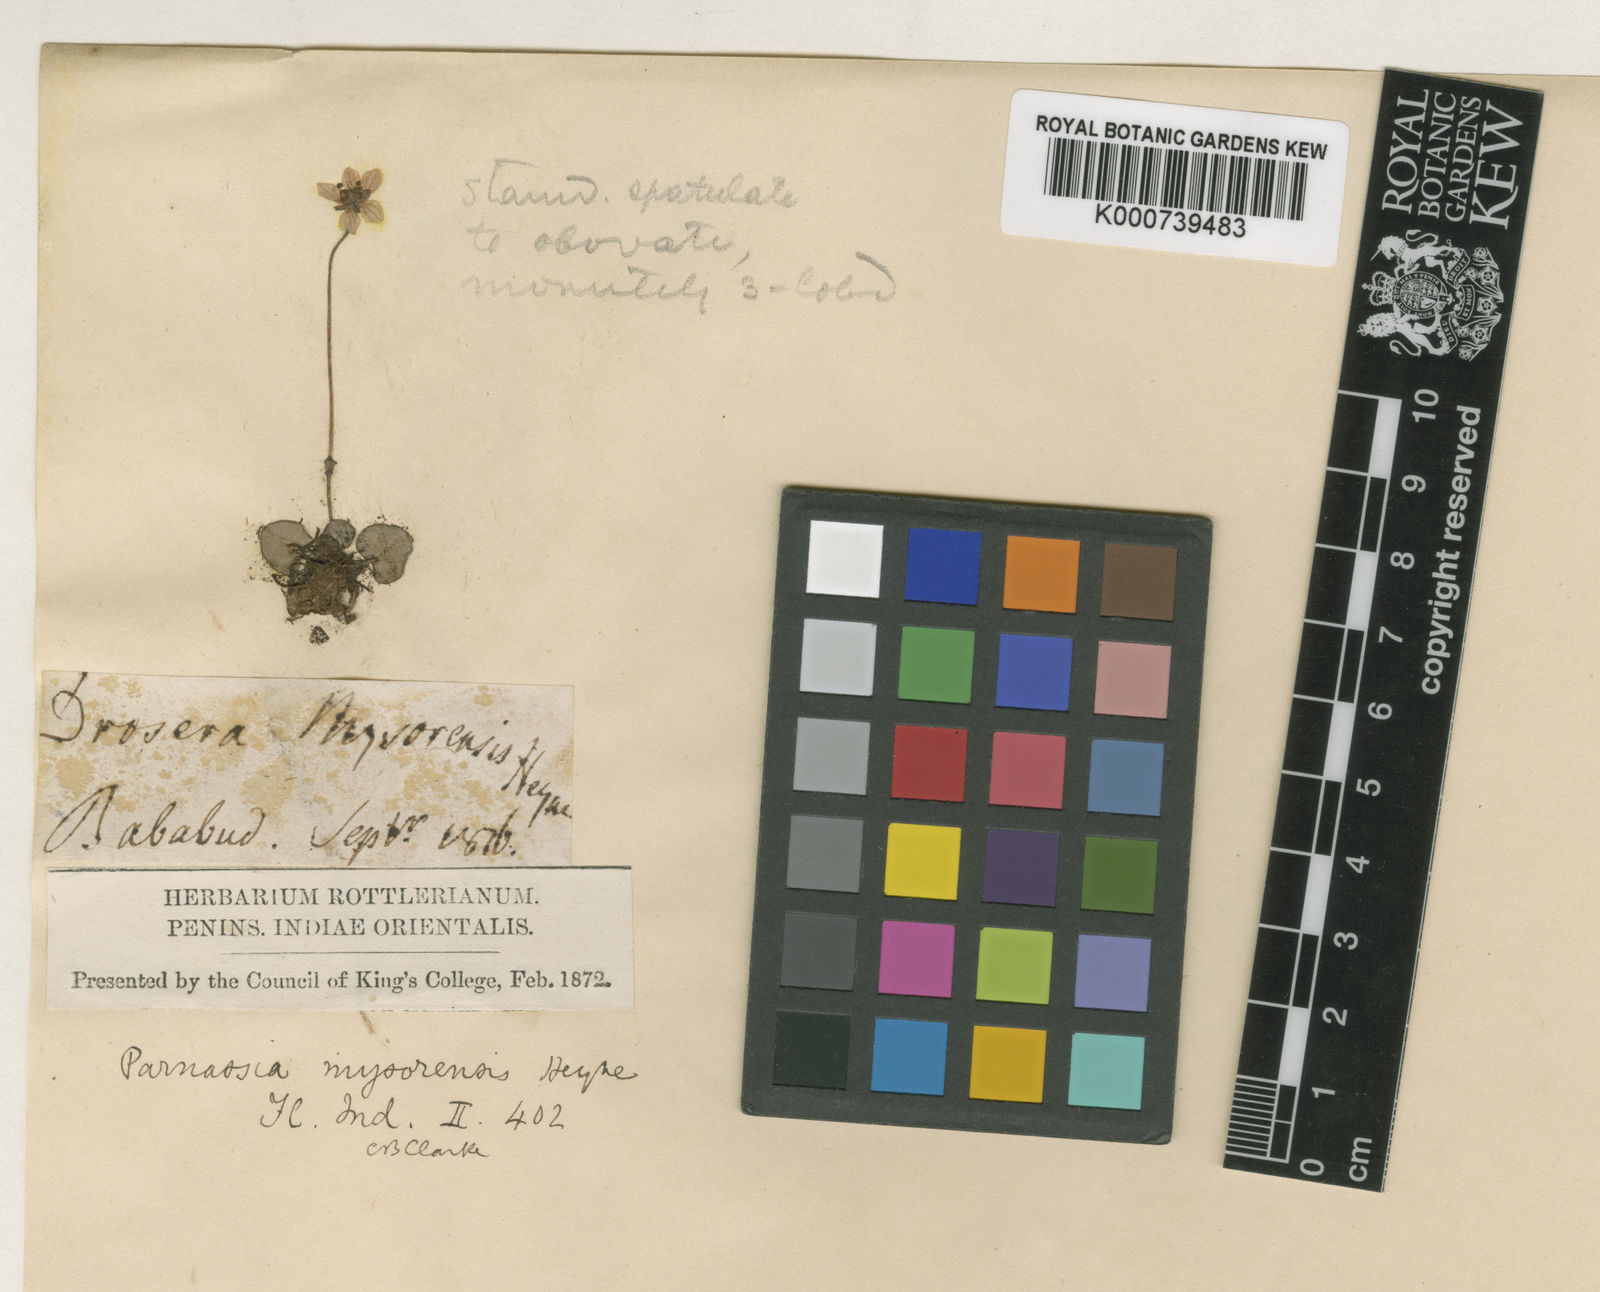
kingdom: Plantae
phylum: Tracheophyta
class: Magnoliopsida
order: Celastrales
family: Parnassiaceae
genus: Parnassia
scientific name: Parnassia mysorensis
